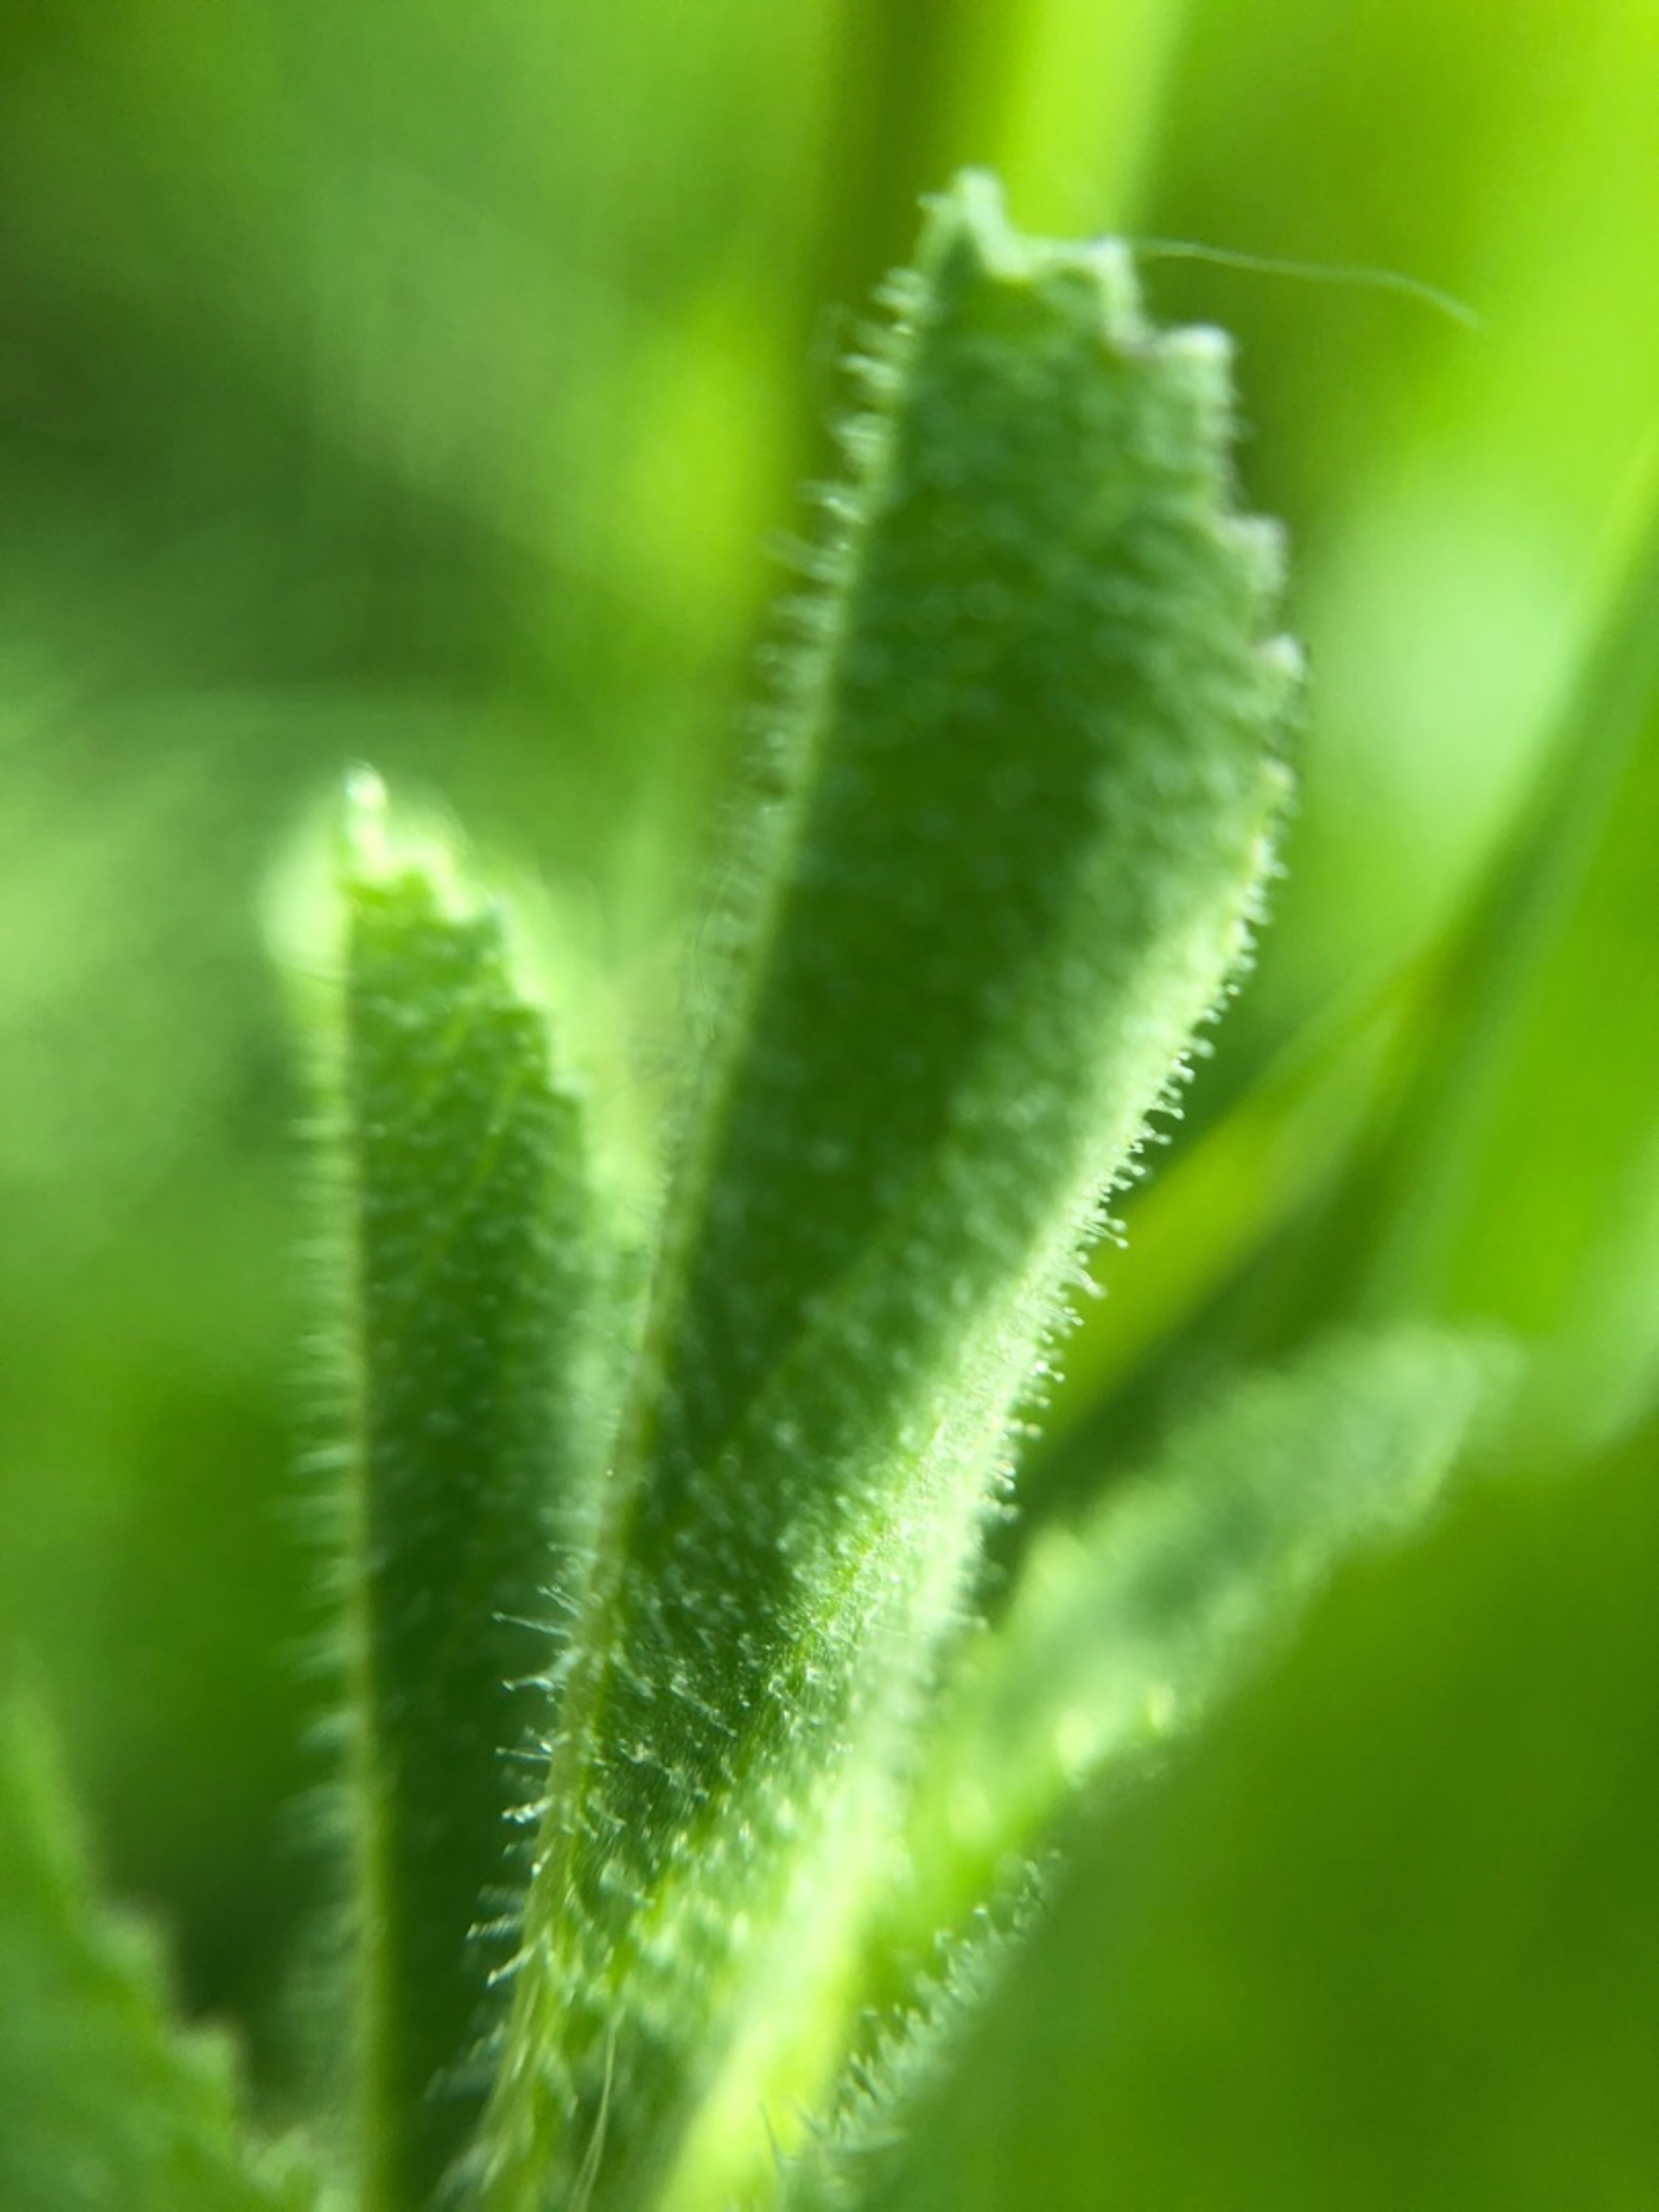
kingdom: Plantae
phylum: Tracheophyta
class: Magnoliopsida
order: Fabales
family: Fabaceae
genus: Ononis
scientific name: Ononis
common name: Kragekloslægten
